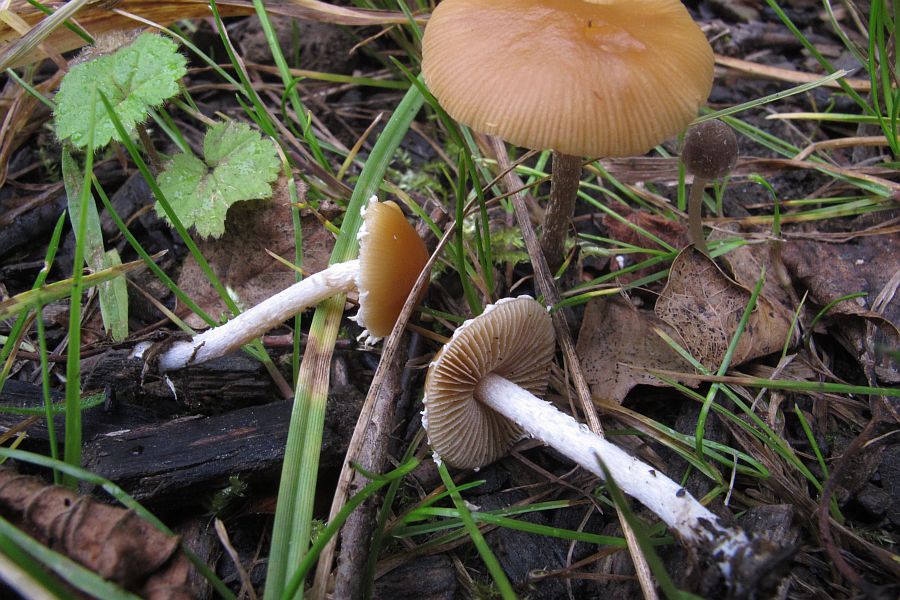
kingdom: Fungi
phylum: Basidiomycota
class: Agaricomycetes
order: Agaricales
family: Bolbitiaceae
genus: Conocybe
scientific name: Conocybe velata
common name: tandet dansehat
